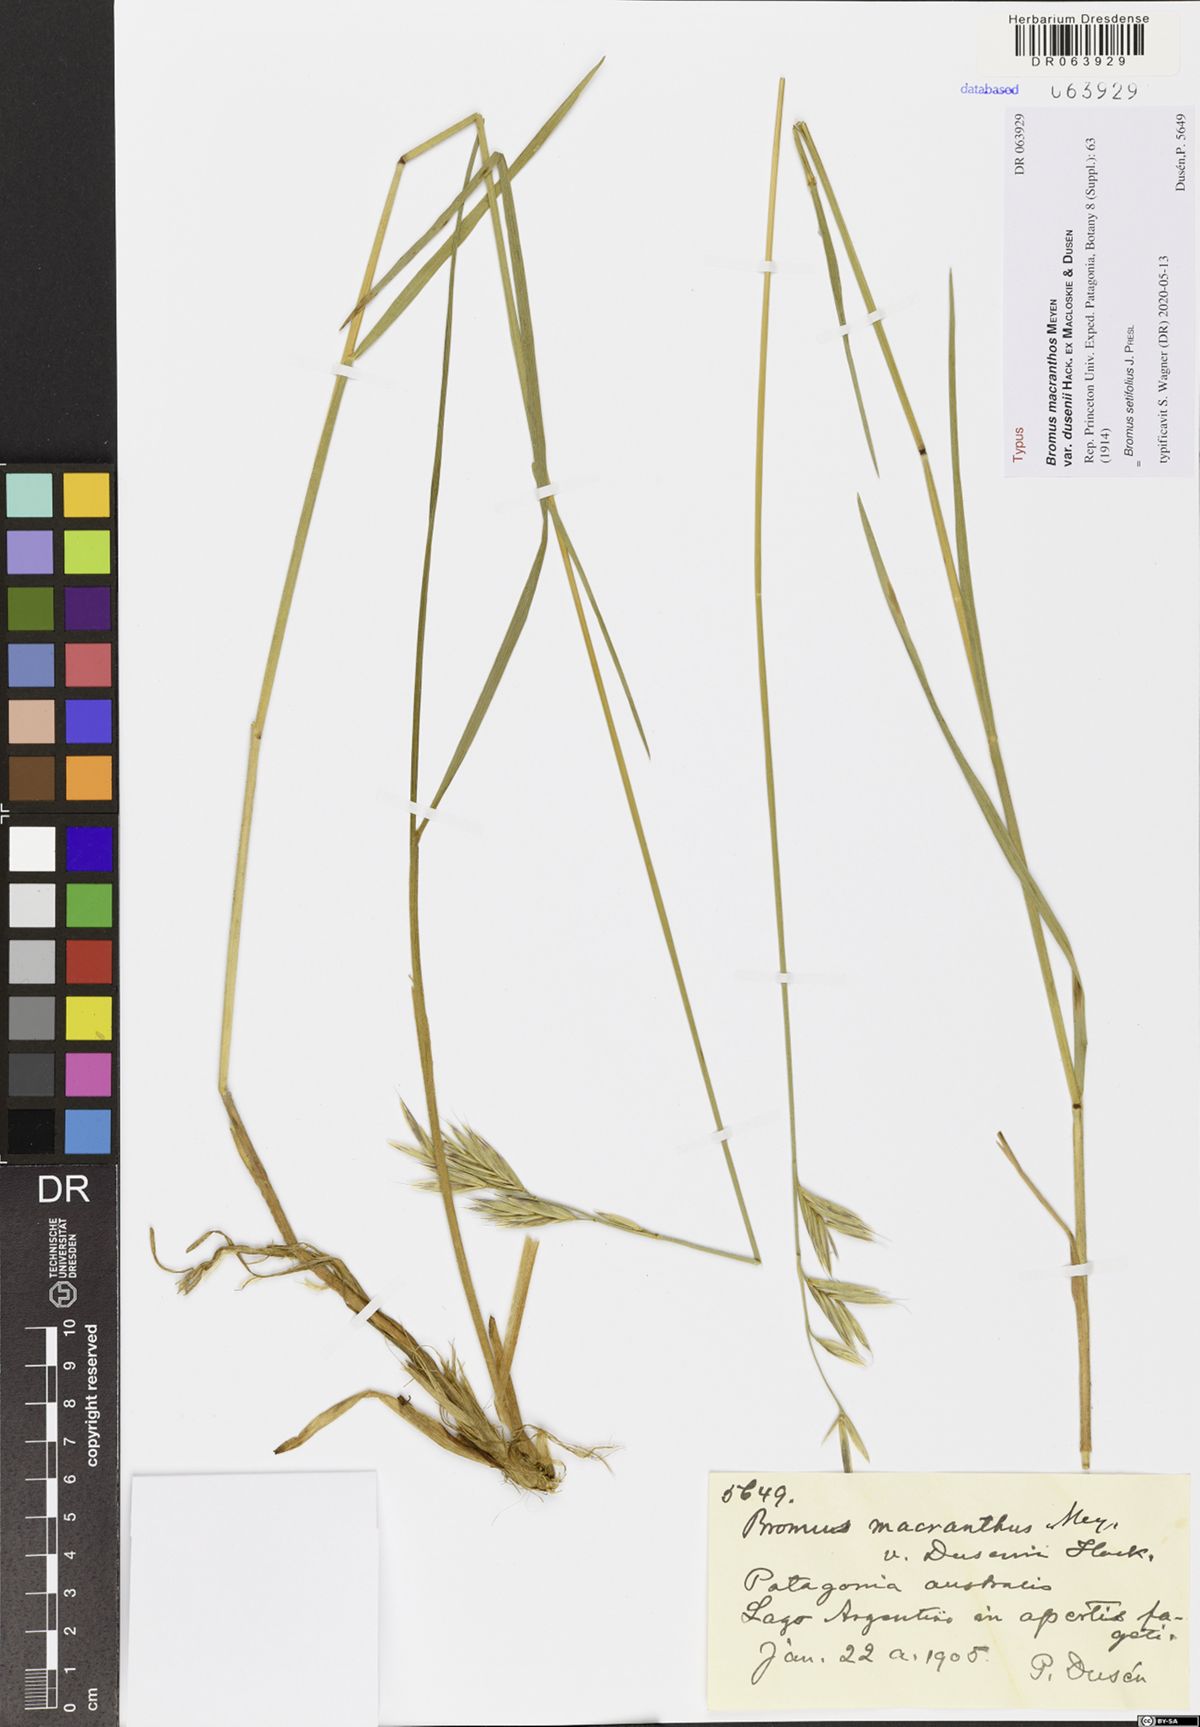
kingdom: Plantae
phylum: Tracheophyta
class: Liliopsida
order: Poales
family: Poaceae
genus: Bromus
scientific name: Bromus setifolius
